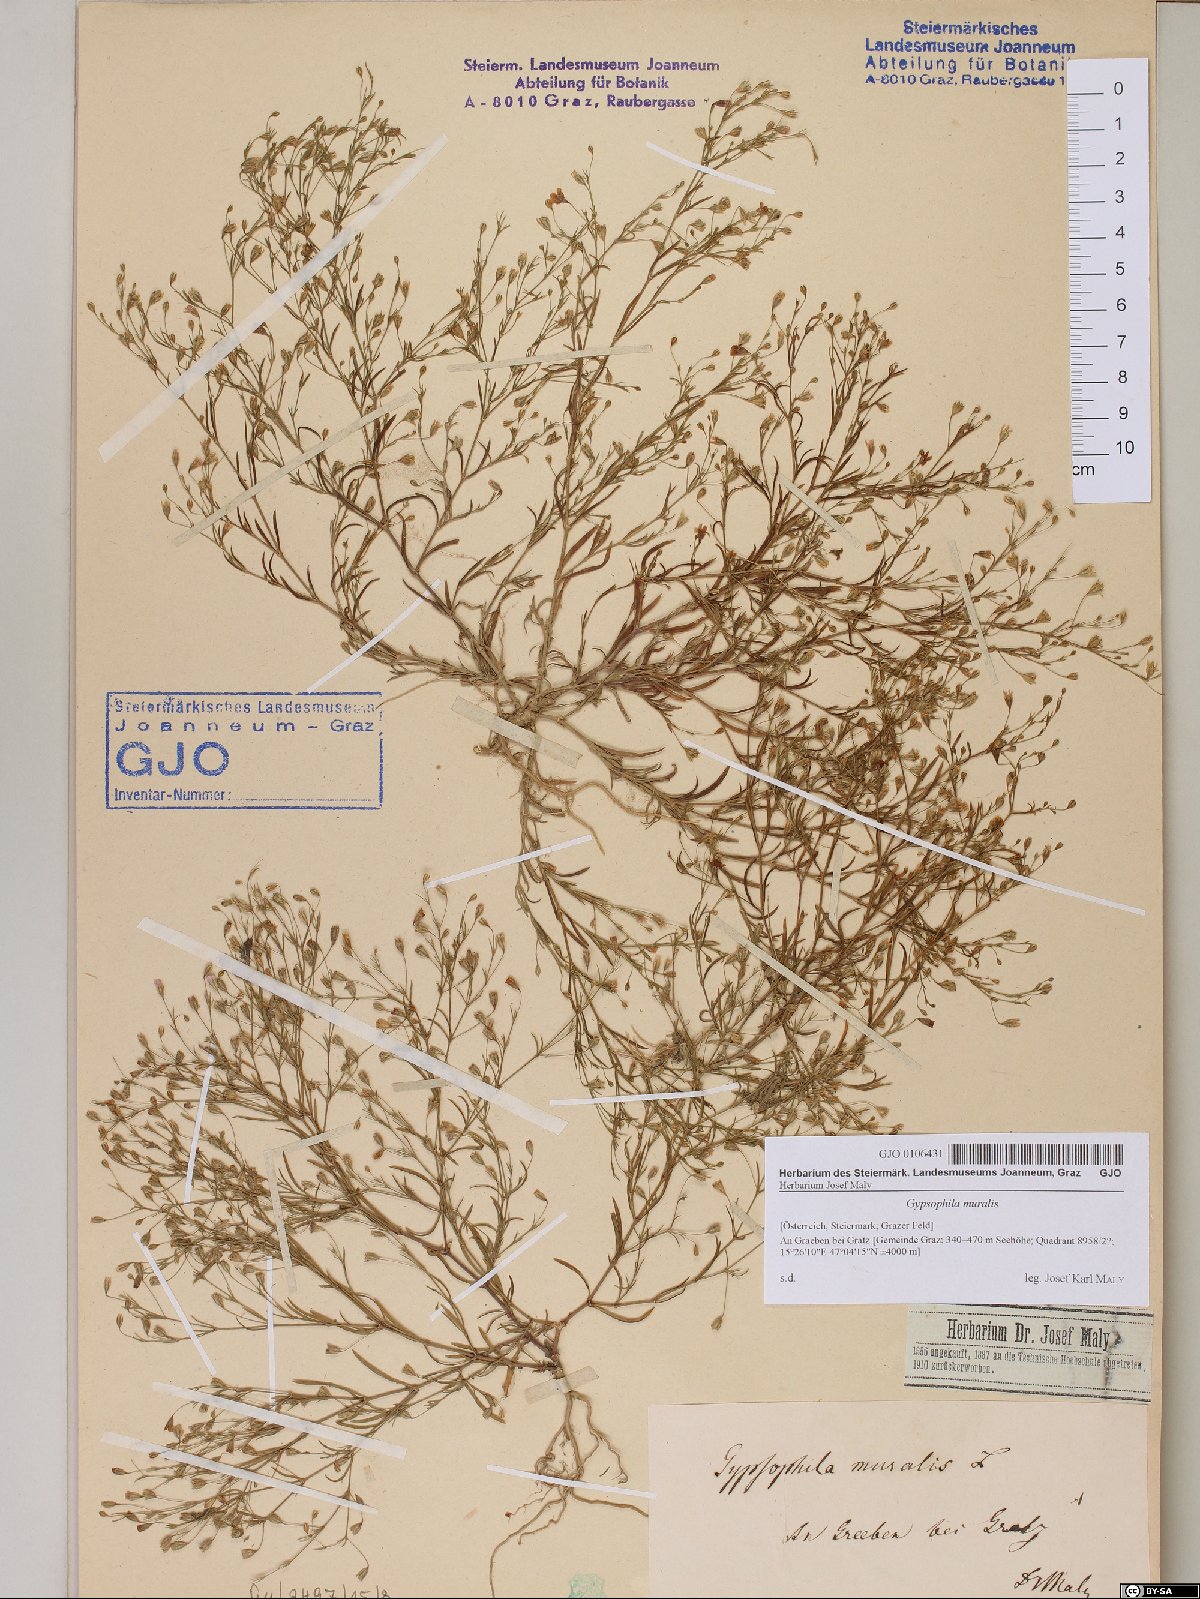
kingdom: Plantae
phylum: Tracheophyta
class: Magnoliopsida
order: Caryophyllales
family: Caryophyllaceae
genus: Psammophiliella
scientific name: Psammophiliella muralis
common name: Cushion baby's-breath
